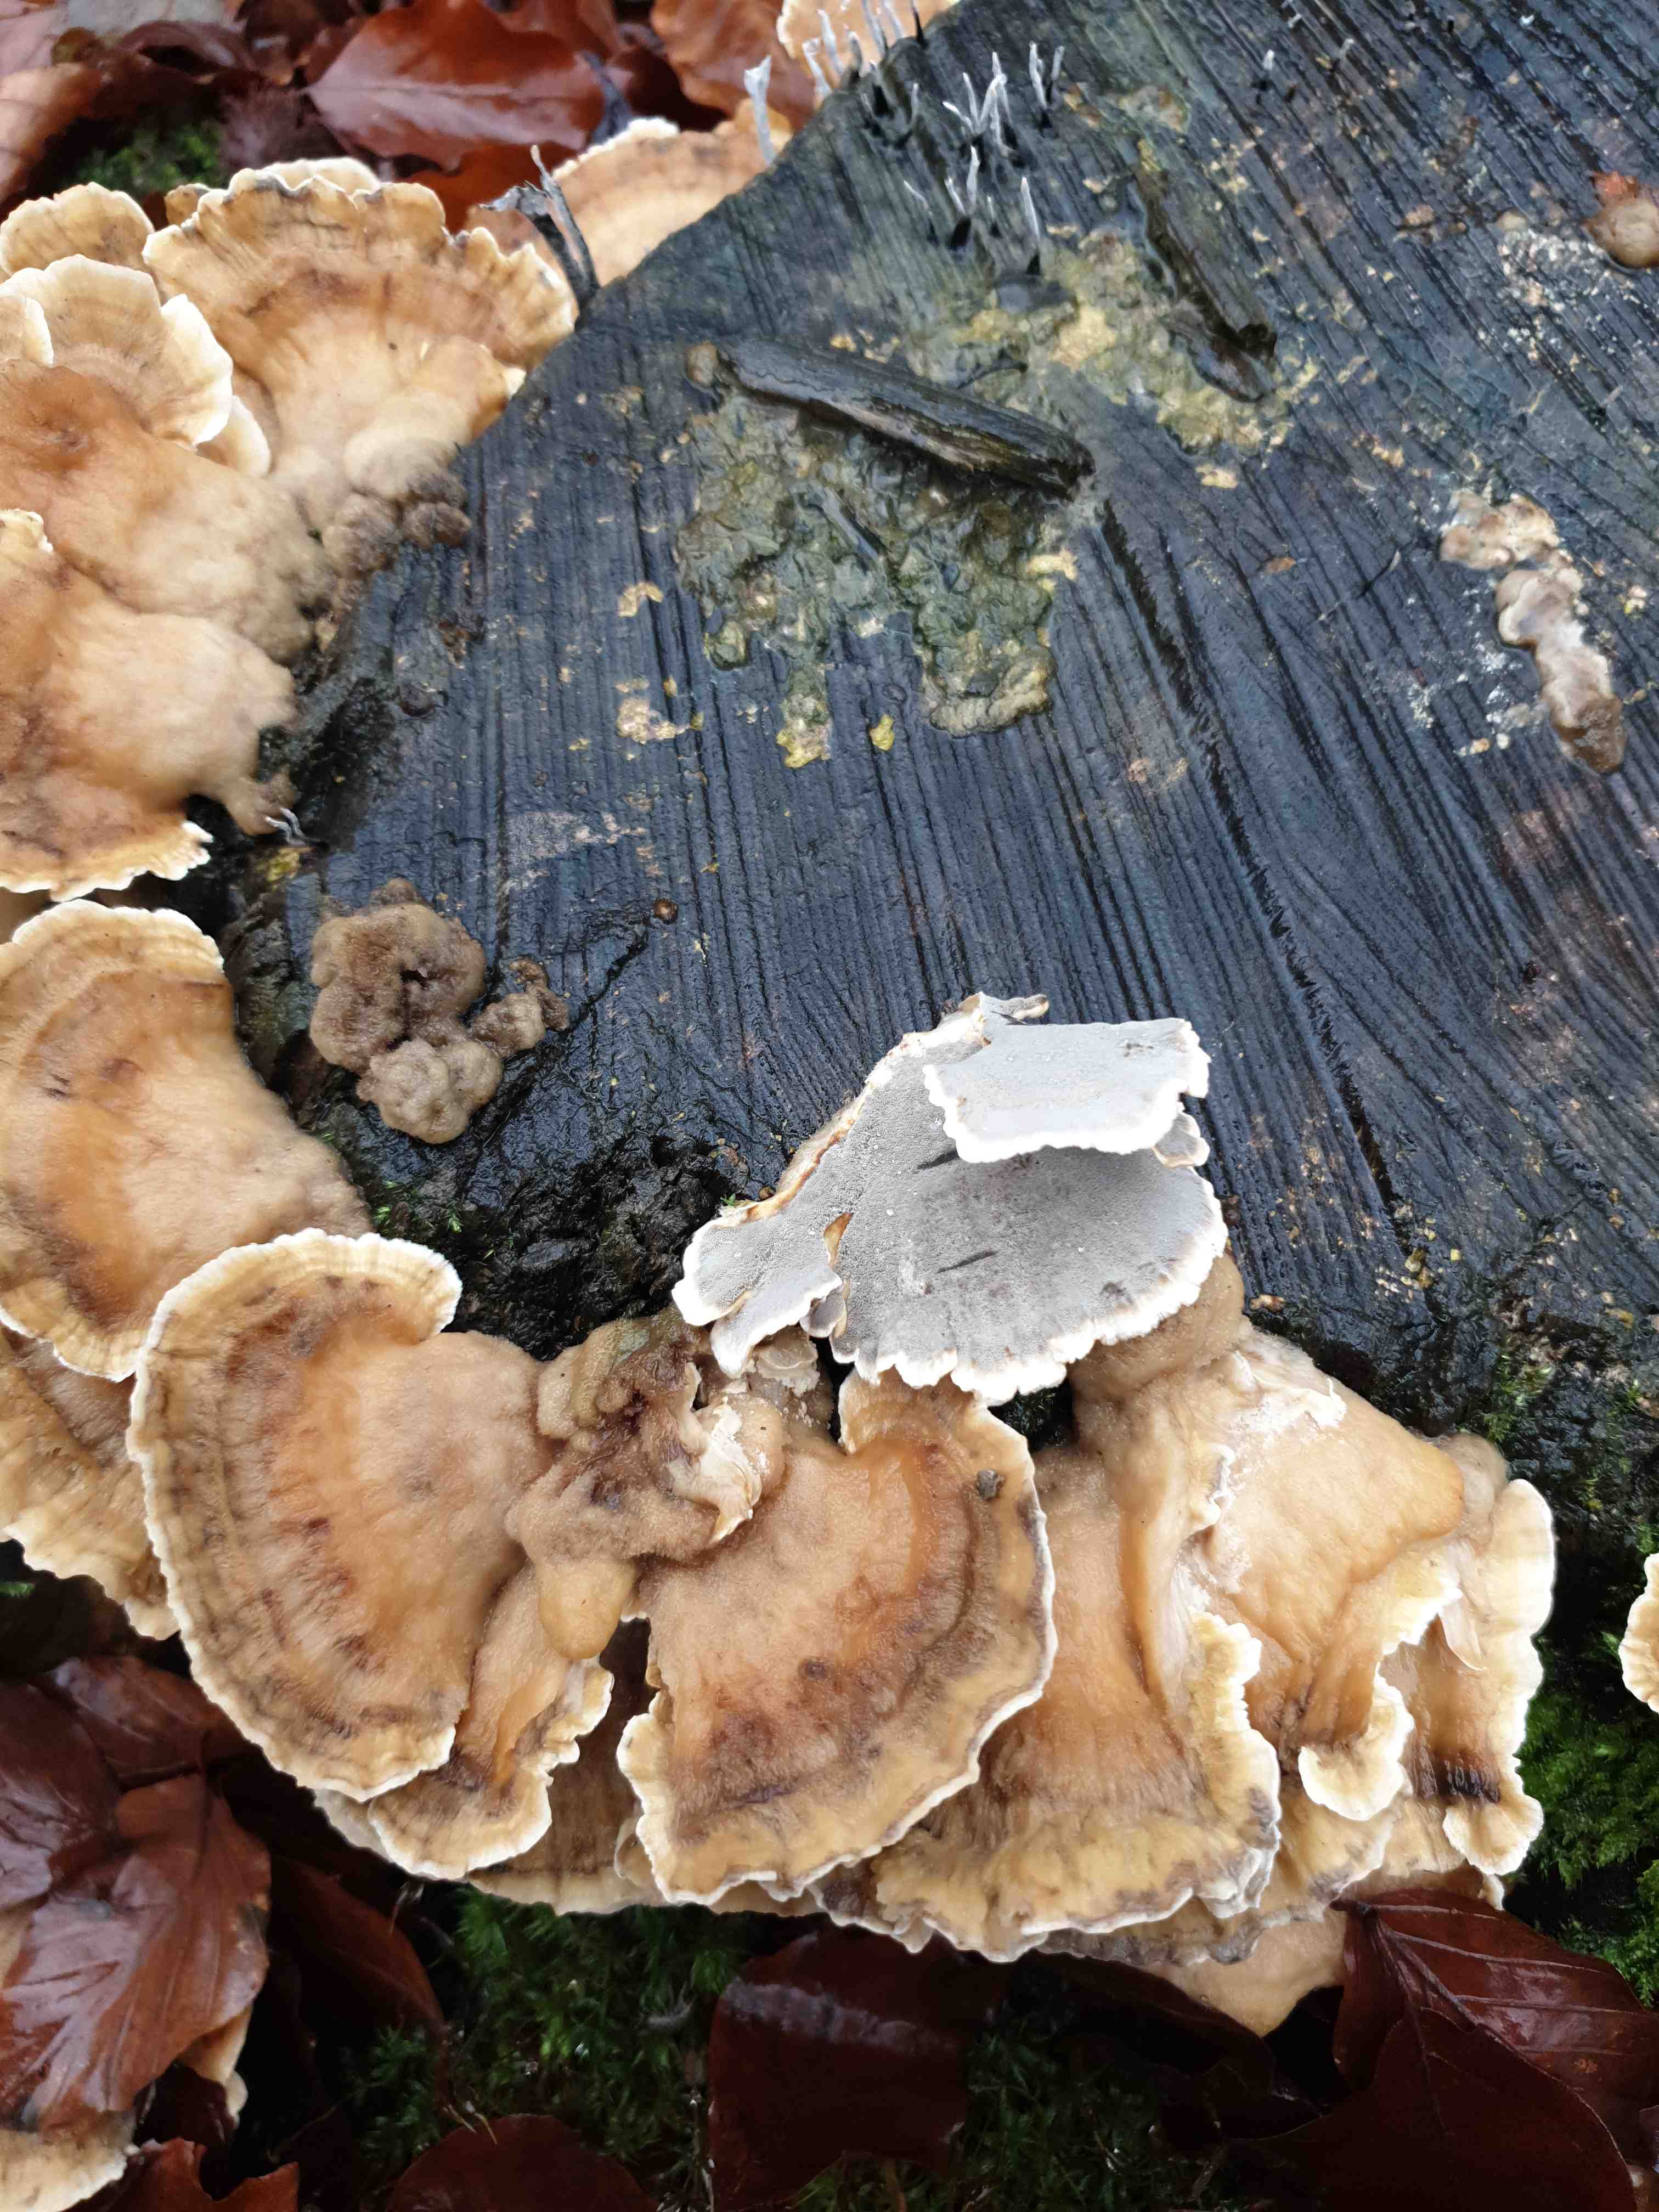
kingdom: Fungi
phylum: Basidiomycota
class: Agaricomycetes
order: Polyporales
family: Phanerochaetaceae
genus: Bjerkandera
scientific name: Bjerkandera adusta
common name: sveden sodporesvamp
